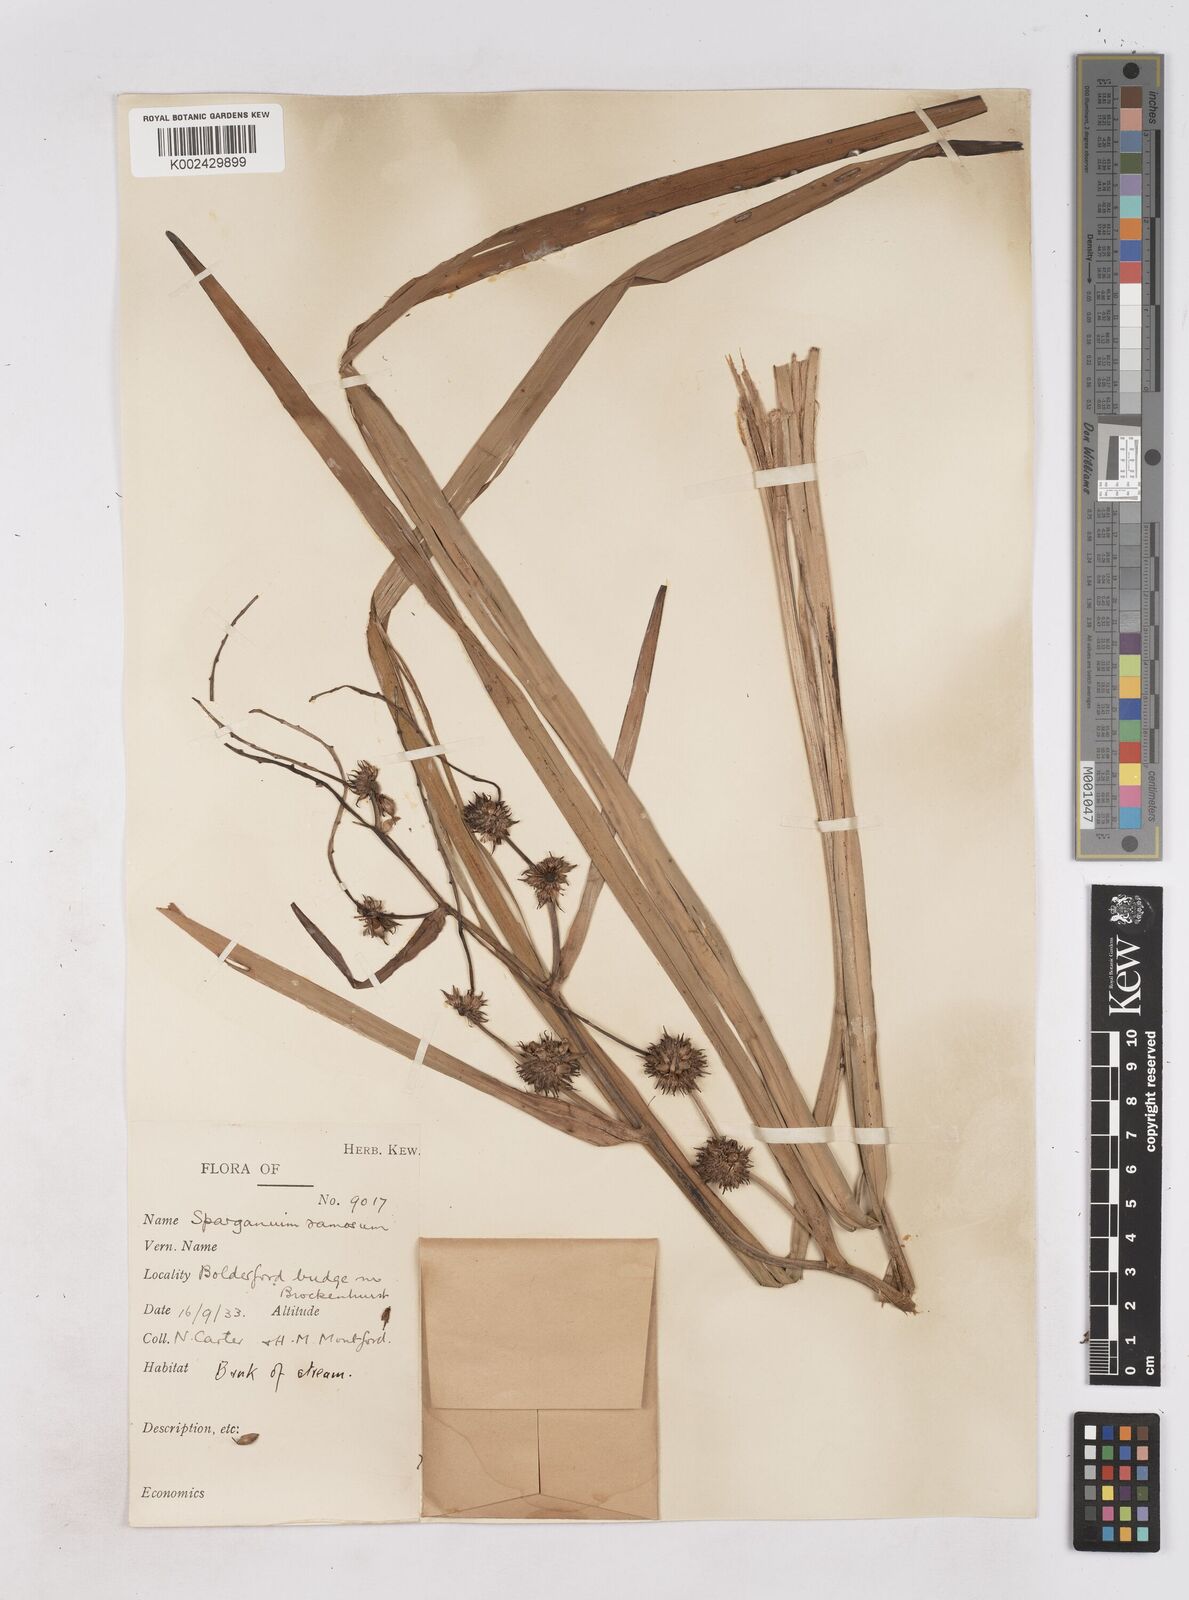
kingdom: Plantae
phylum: Tracheophyta
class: Liliopsida
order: Poales
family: Typhaceae
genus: Sparganium
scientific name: Sparganium erectum
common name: Branched bur-reed
